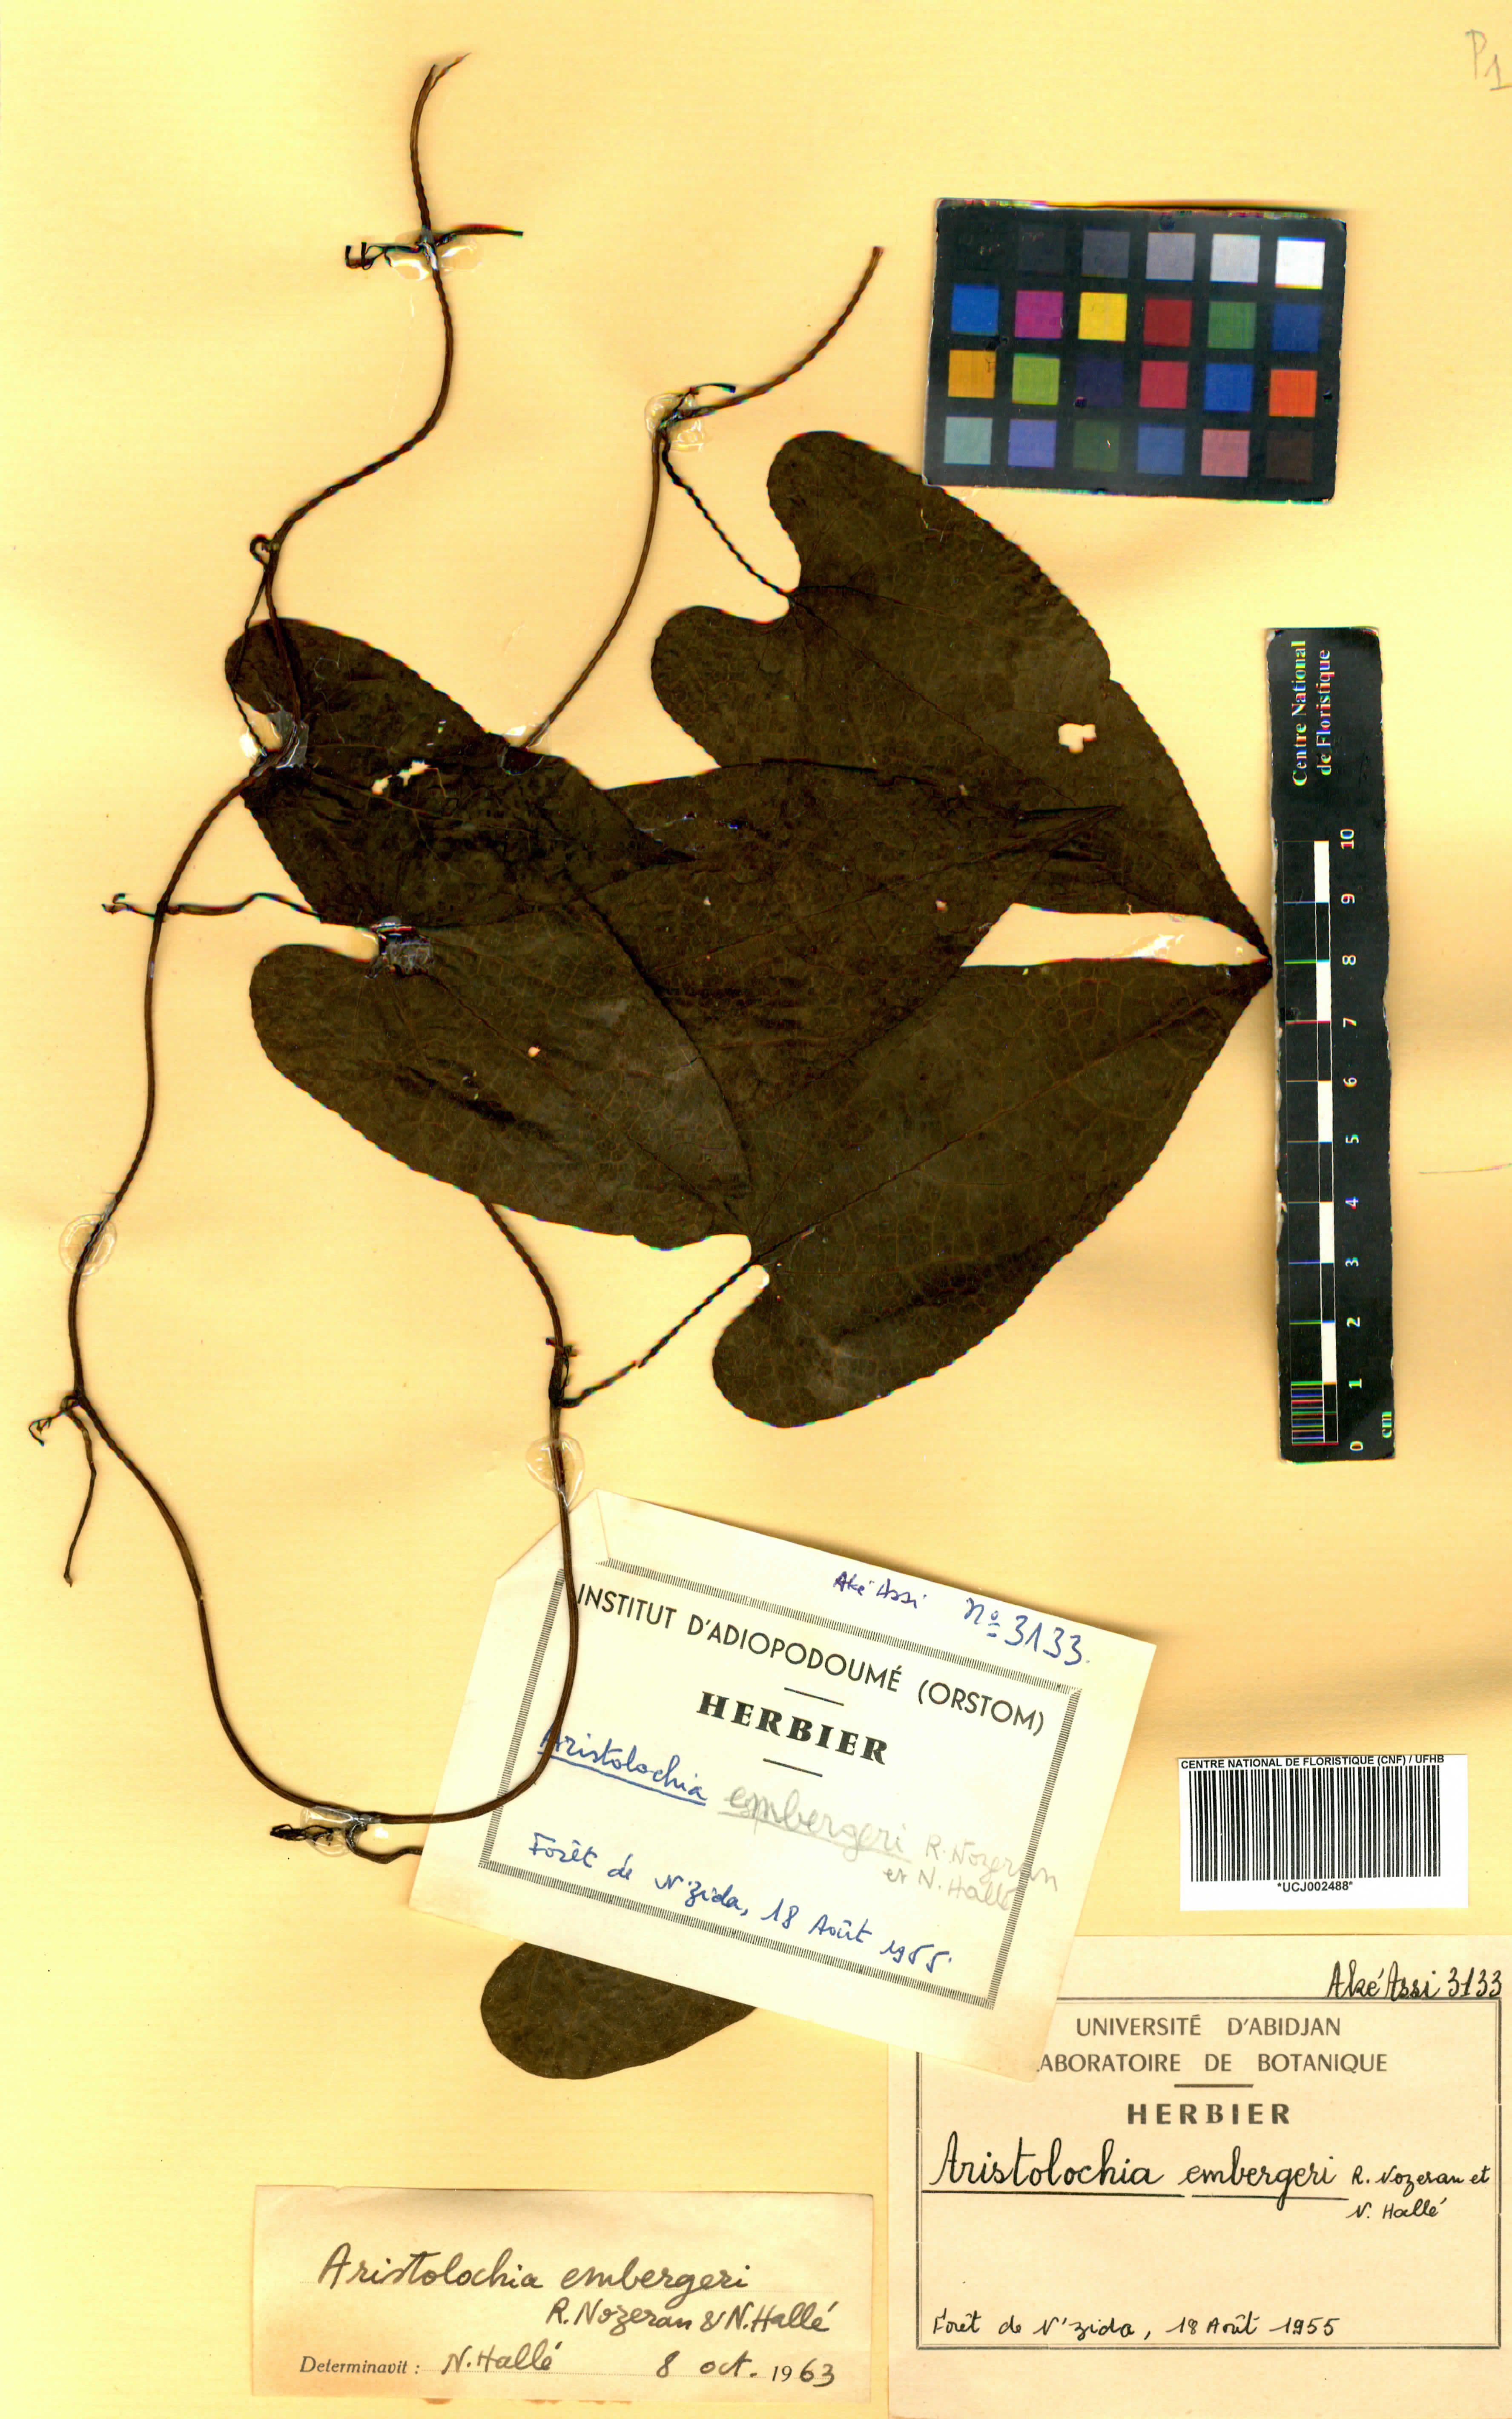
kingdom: Plantae
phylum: Tracheophyta
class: Magnoliopsida
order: Piperales
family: Aristolochiaceae
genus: Aristolochia
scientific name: Aristolochia embergeri
